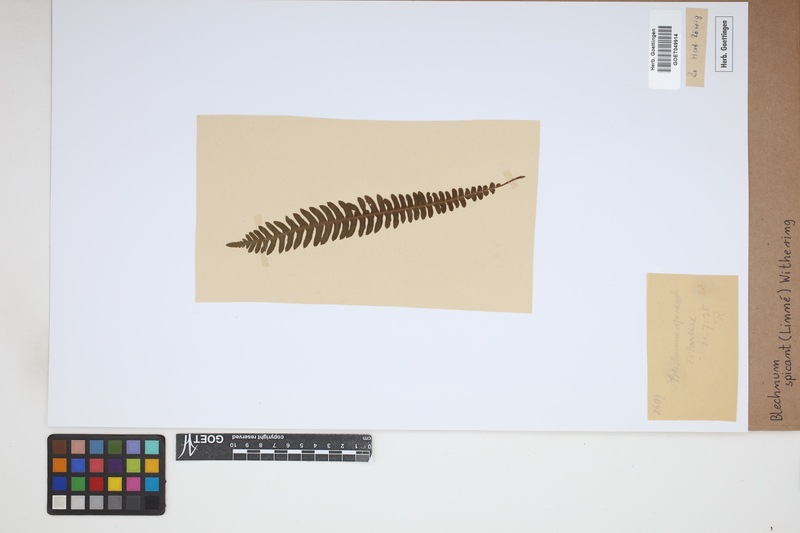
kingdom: Plantae
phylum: Tracheophyta
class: Polypodiopsida
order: Polypodiales
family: Blechnaceae
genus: Struthiopteris
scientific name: Struthiopteris spicant
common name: Deer fern
